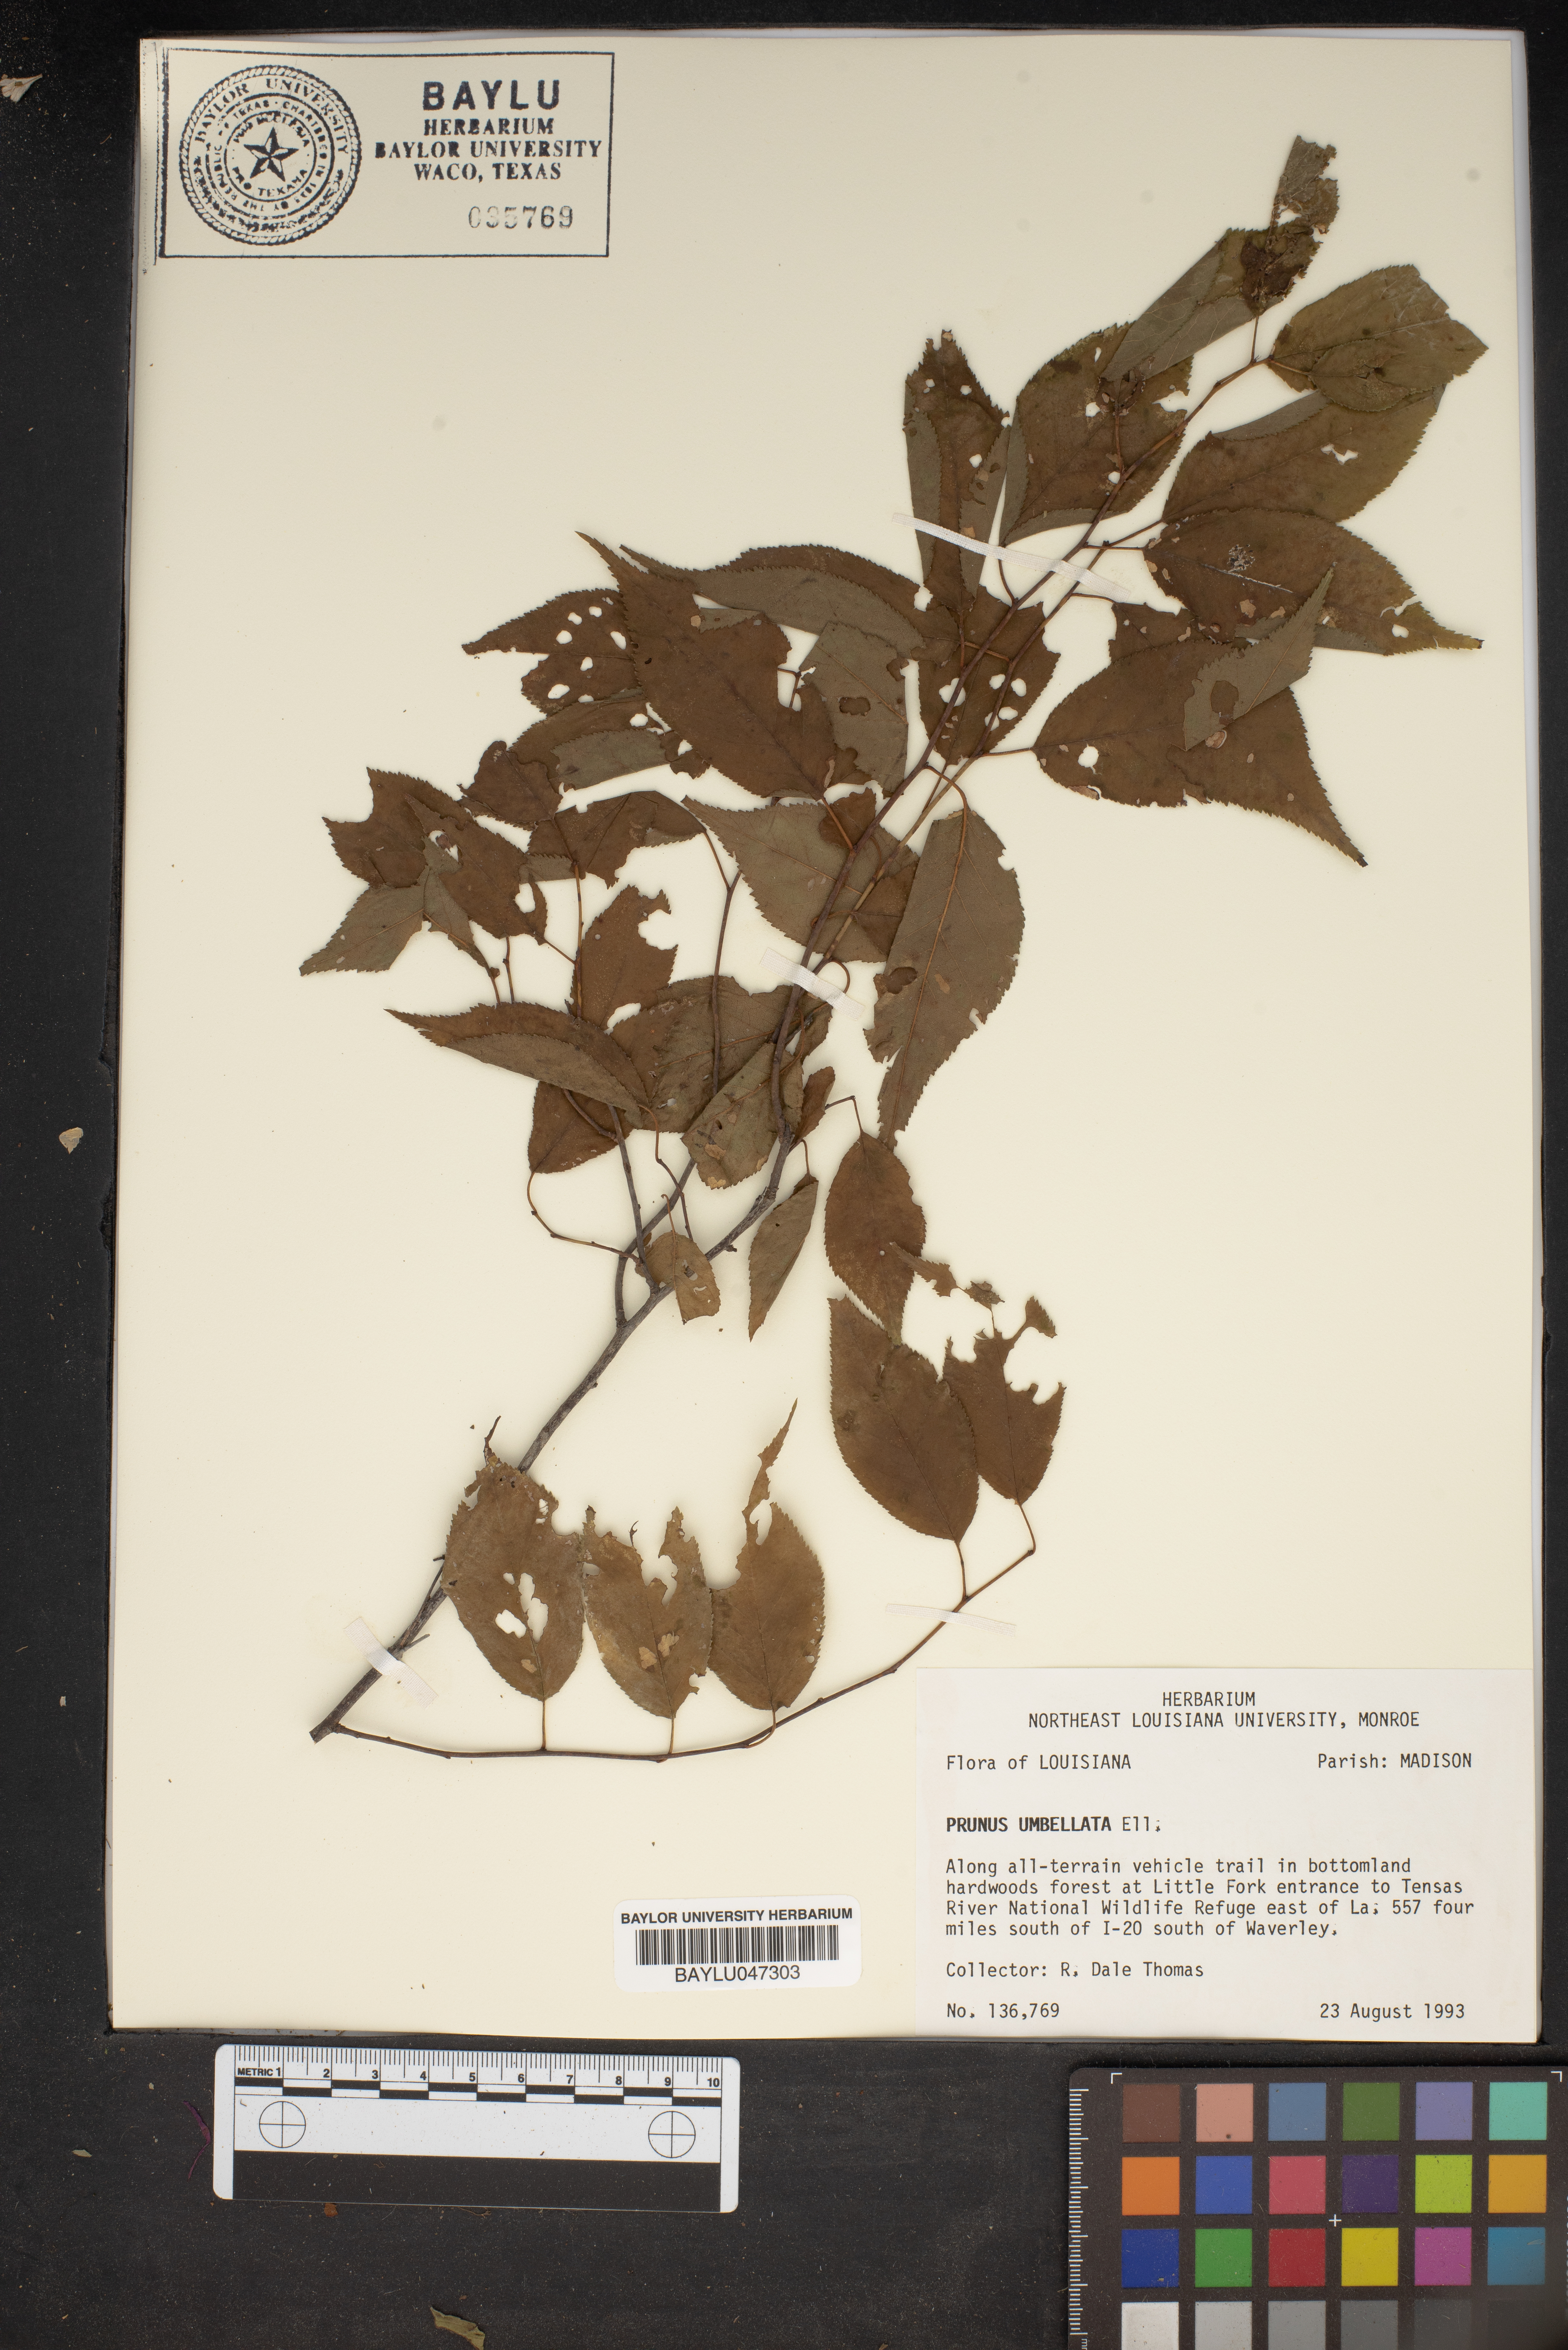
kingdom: Plantae
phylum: Tracheophyta
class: Magnoliopsida
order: Rosales
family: Rosaceae
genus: Prunus
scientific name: Prunus umbellata
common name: Allegheny plum
